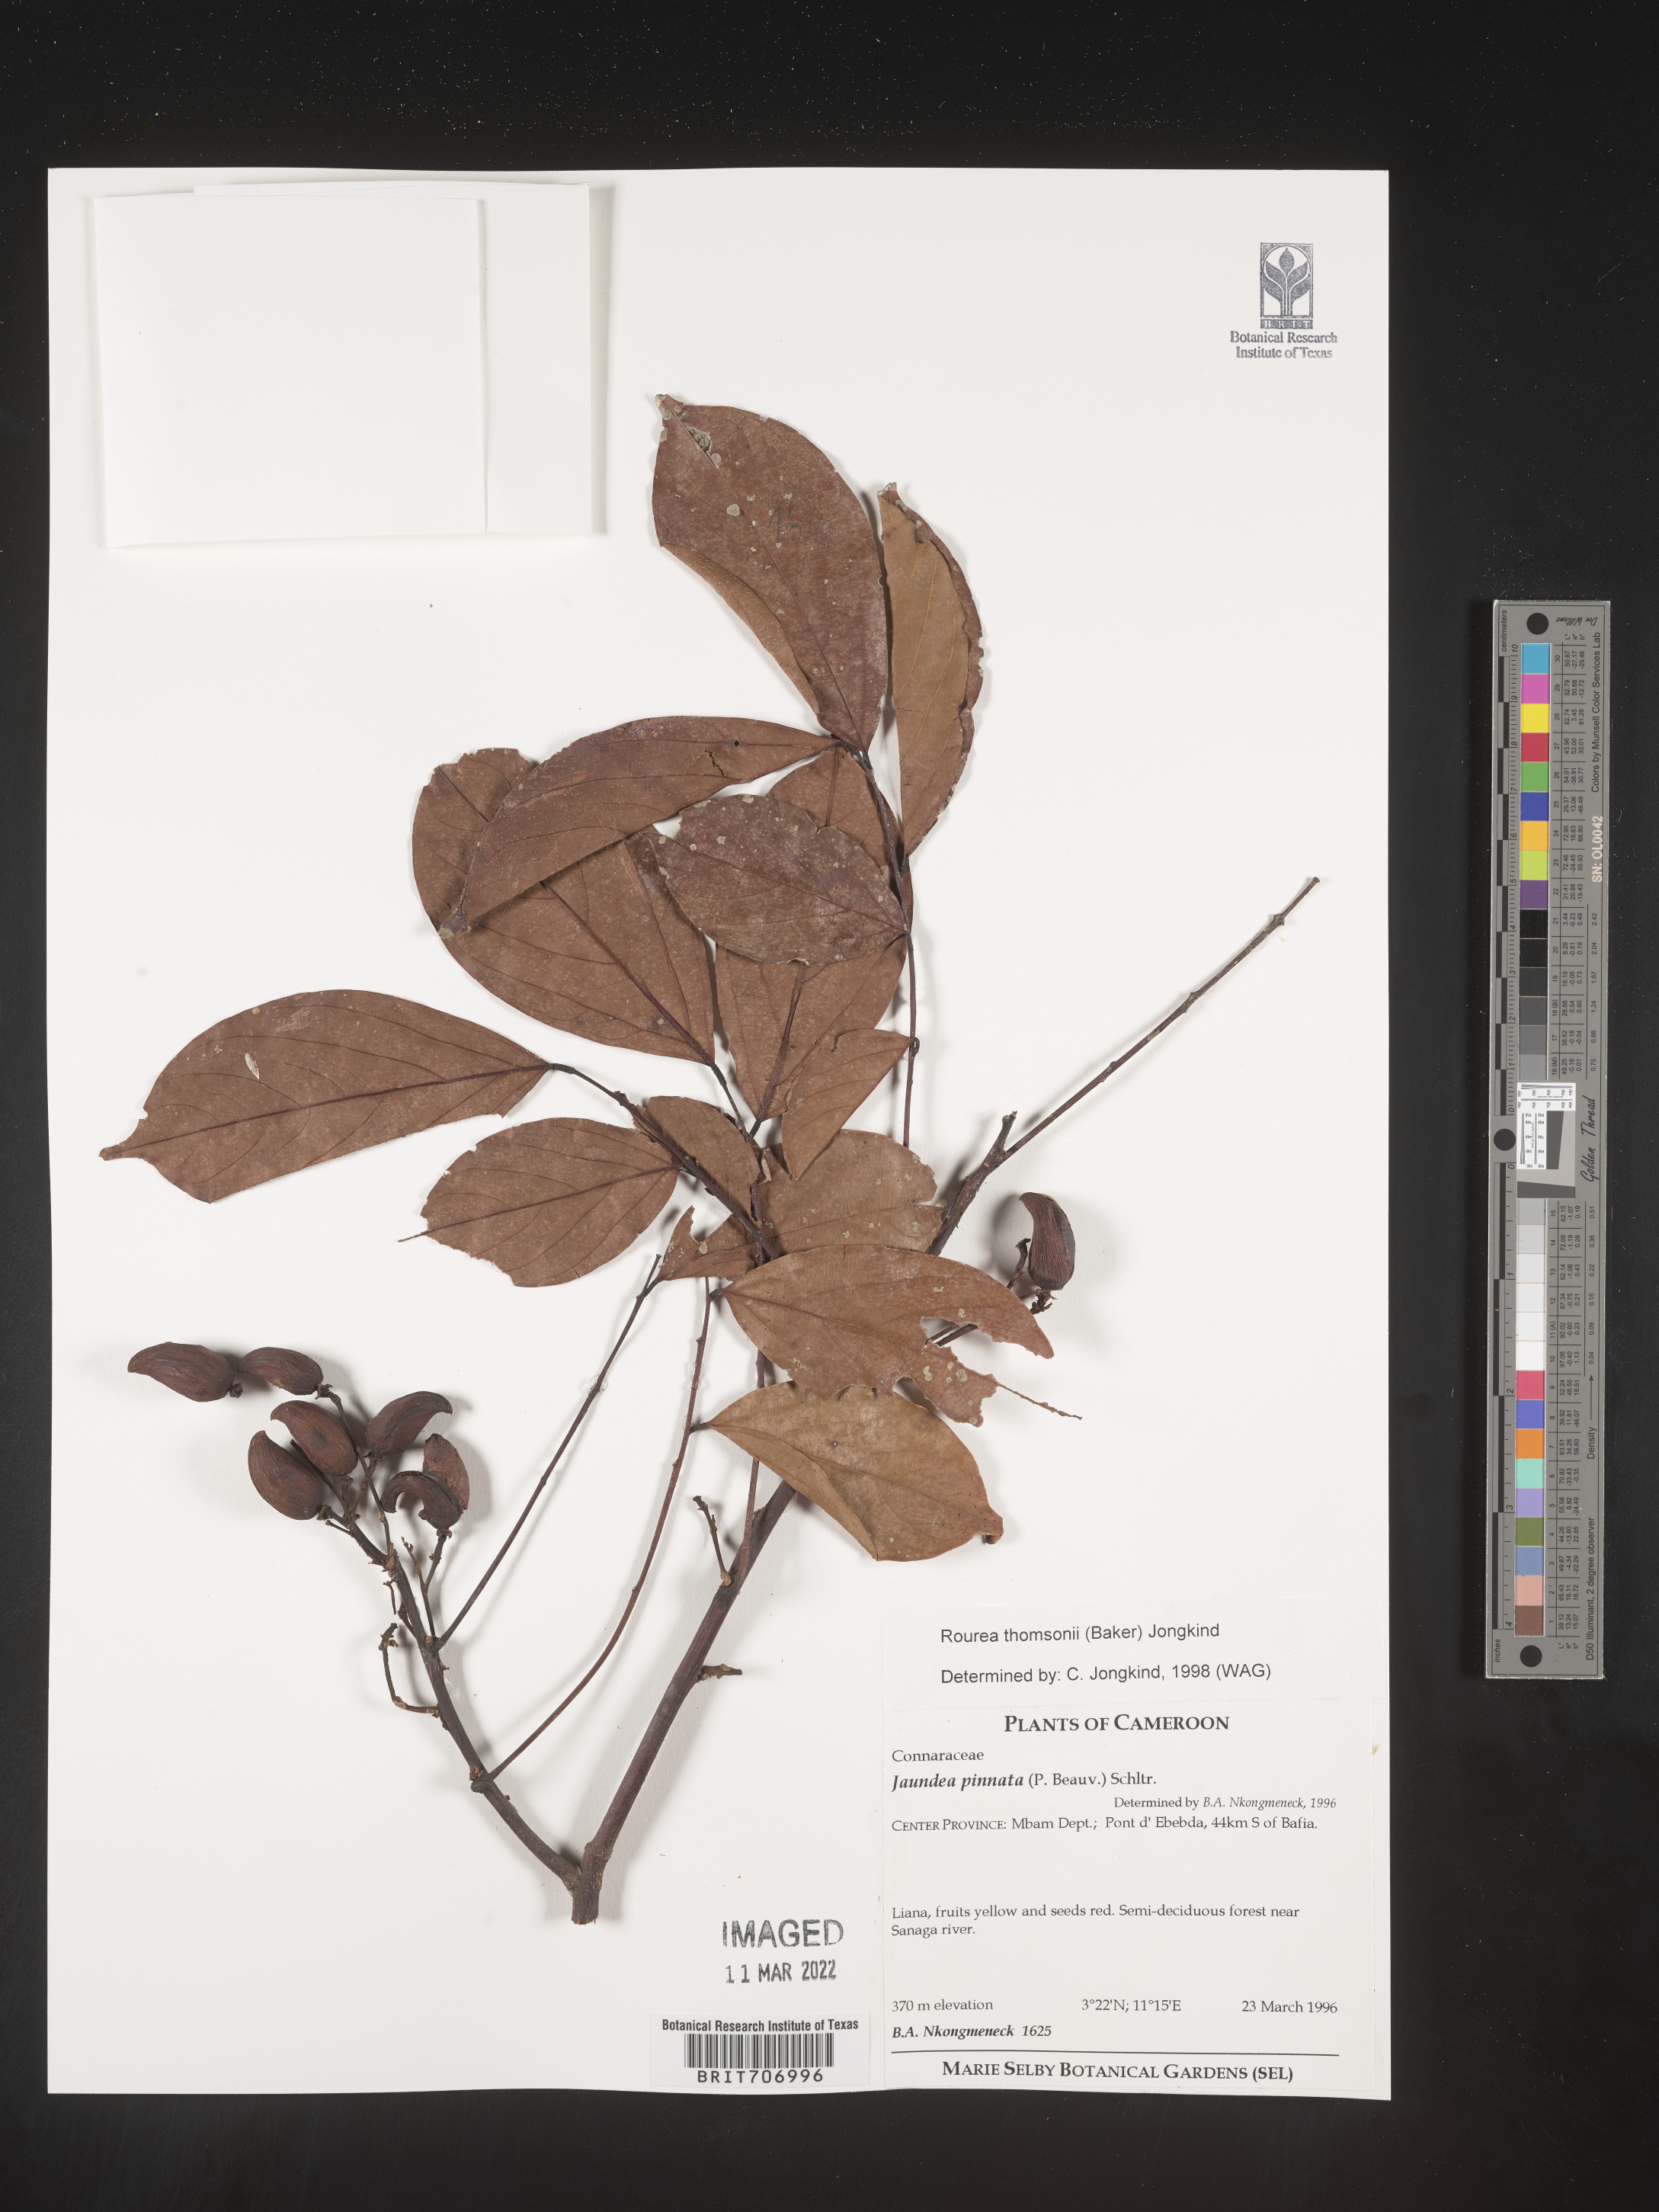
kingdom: Plantae
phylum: Tracheophyta
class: Magnoliopsida
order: Oxalidales
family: Connaraceae
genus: Rourea
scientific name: Rourea
